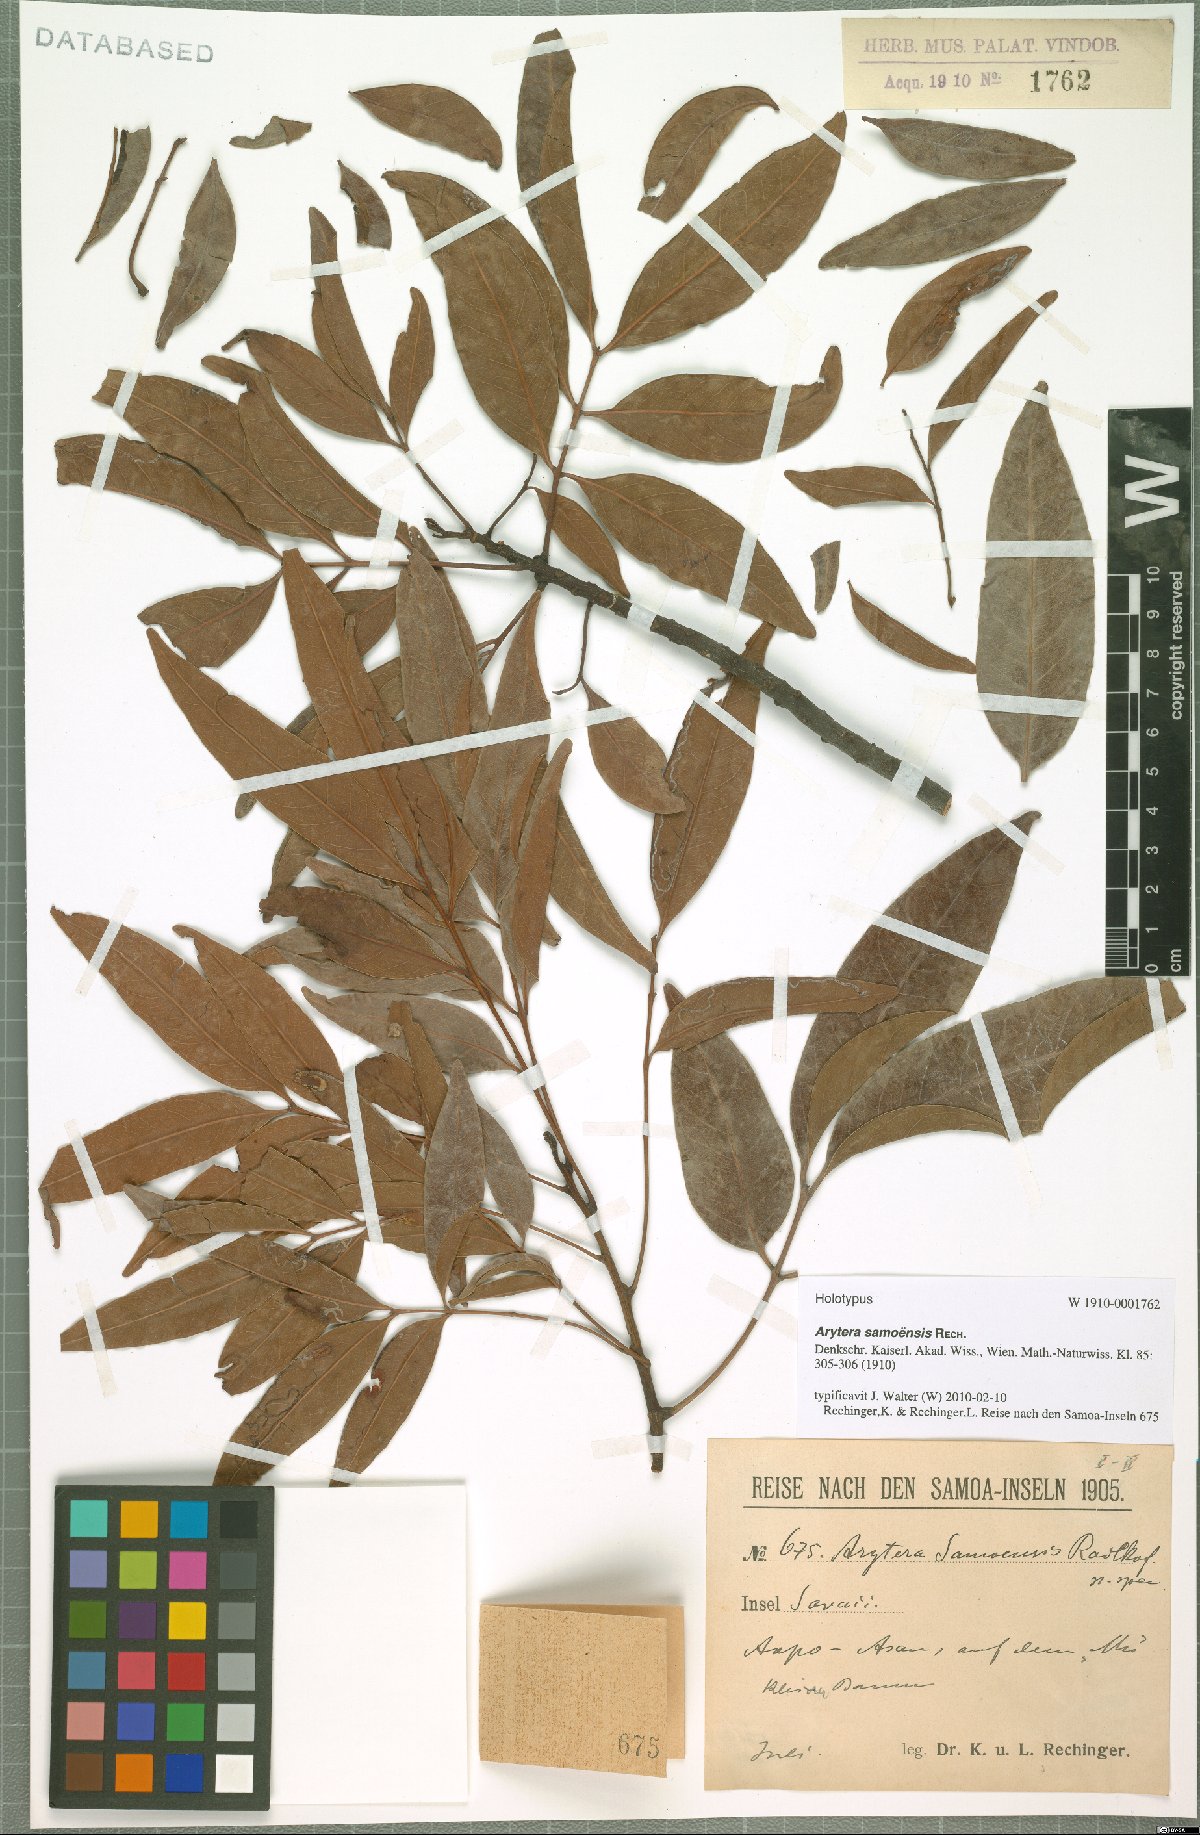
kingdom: Plantae
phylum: Tracheophyta
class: Magnoliopsida
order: Sapindales
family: Sapindaceae
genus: Lepidocupania
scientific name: Lepidocupania brackenridgei
